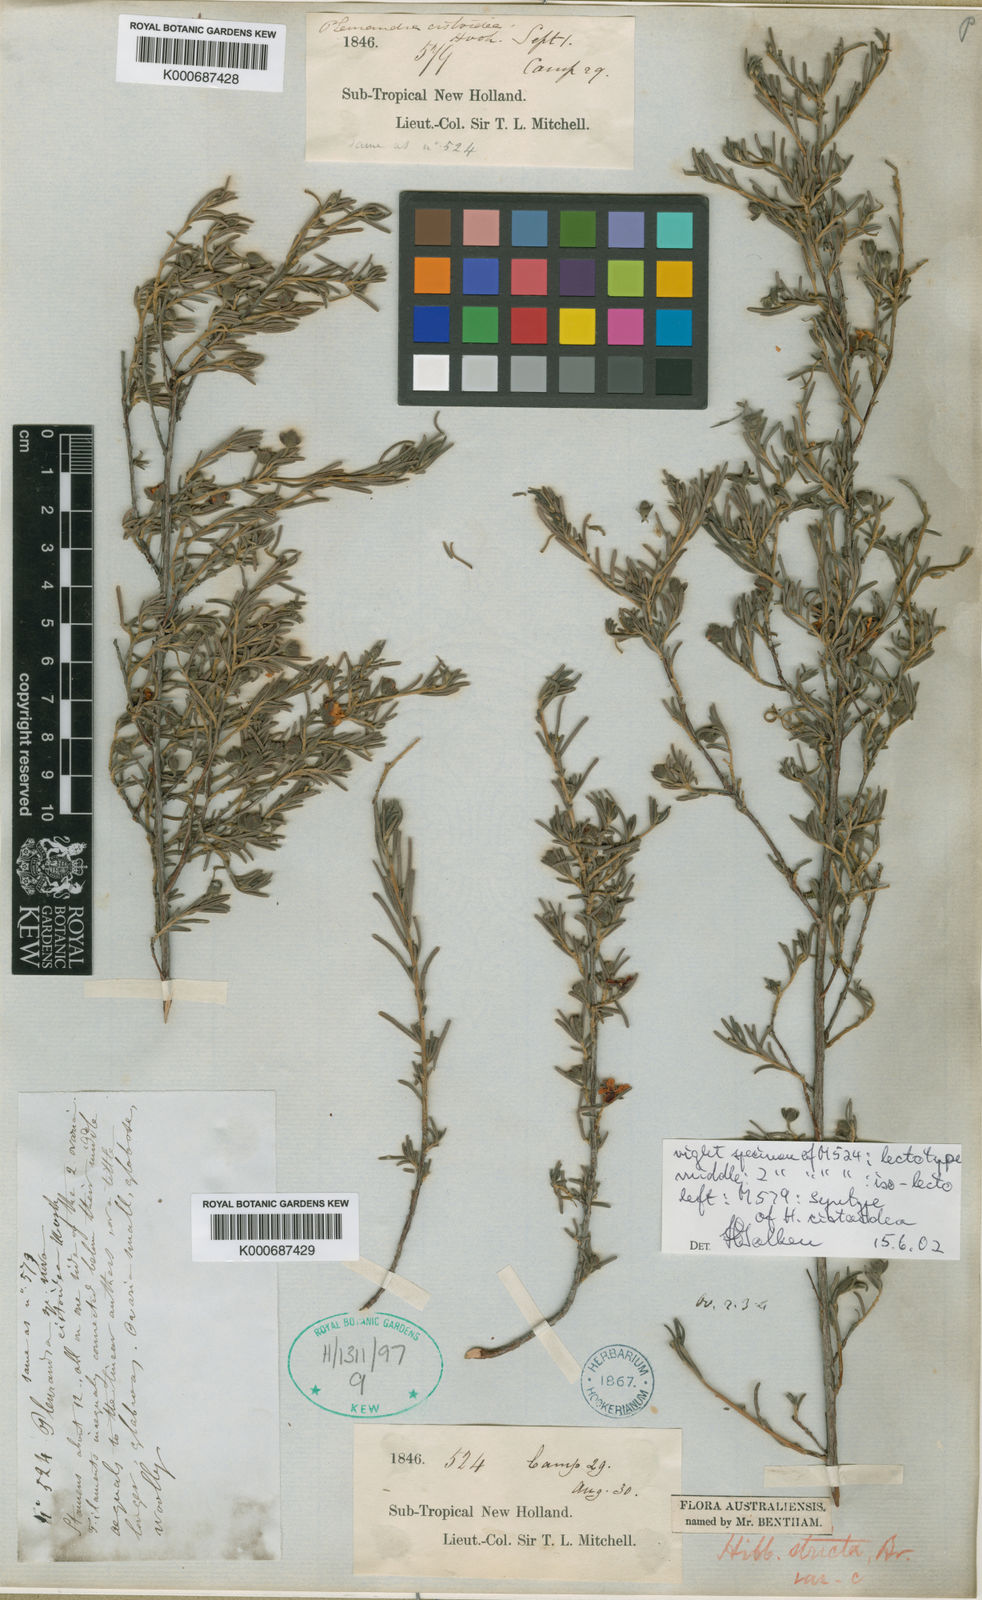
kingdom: Plantae
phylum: Tracheophyta
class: Magnoliopsida
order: Dilleniales
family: Dilleniaceae
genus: Hibbertia
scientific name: Hibbertia incana
